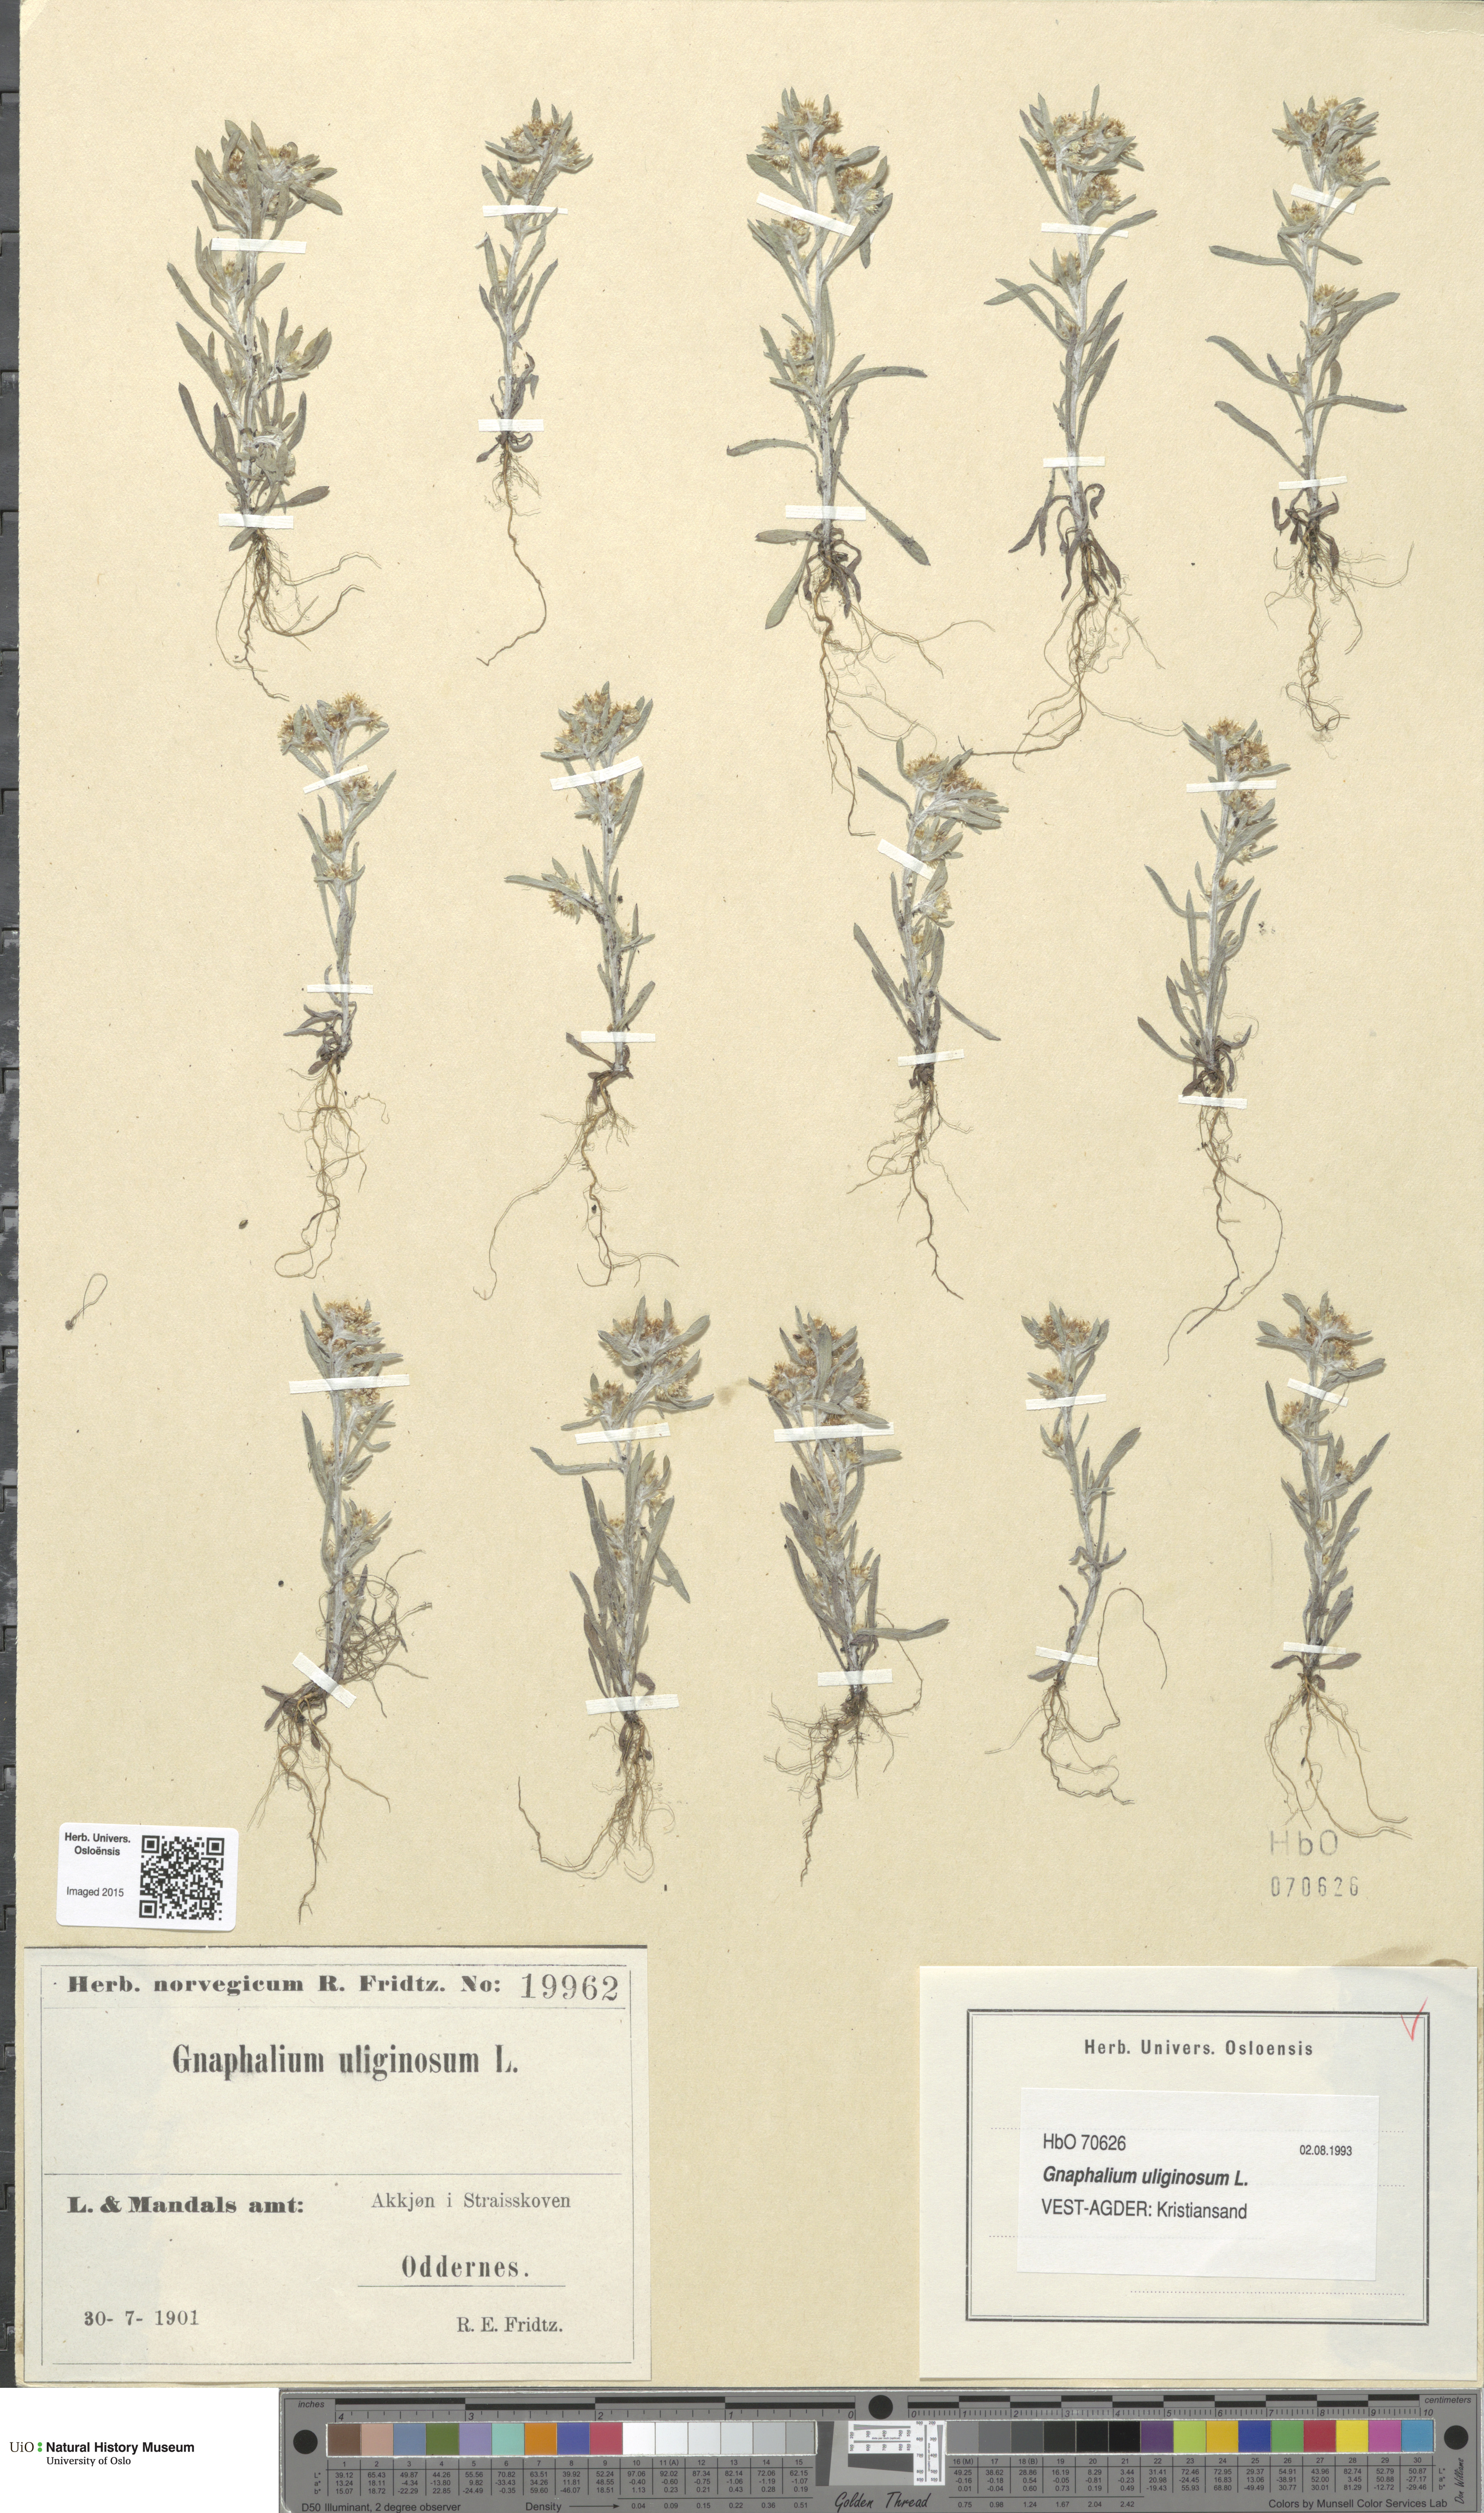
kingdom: Plantae
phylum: Tracheophyta
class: Magnoliopsida
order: Asterales
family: Asteraceae
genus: Gnaphalium
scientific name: Gnaphalium uliginosum
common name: Marsh cudweed
